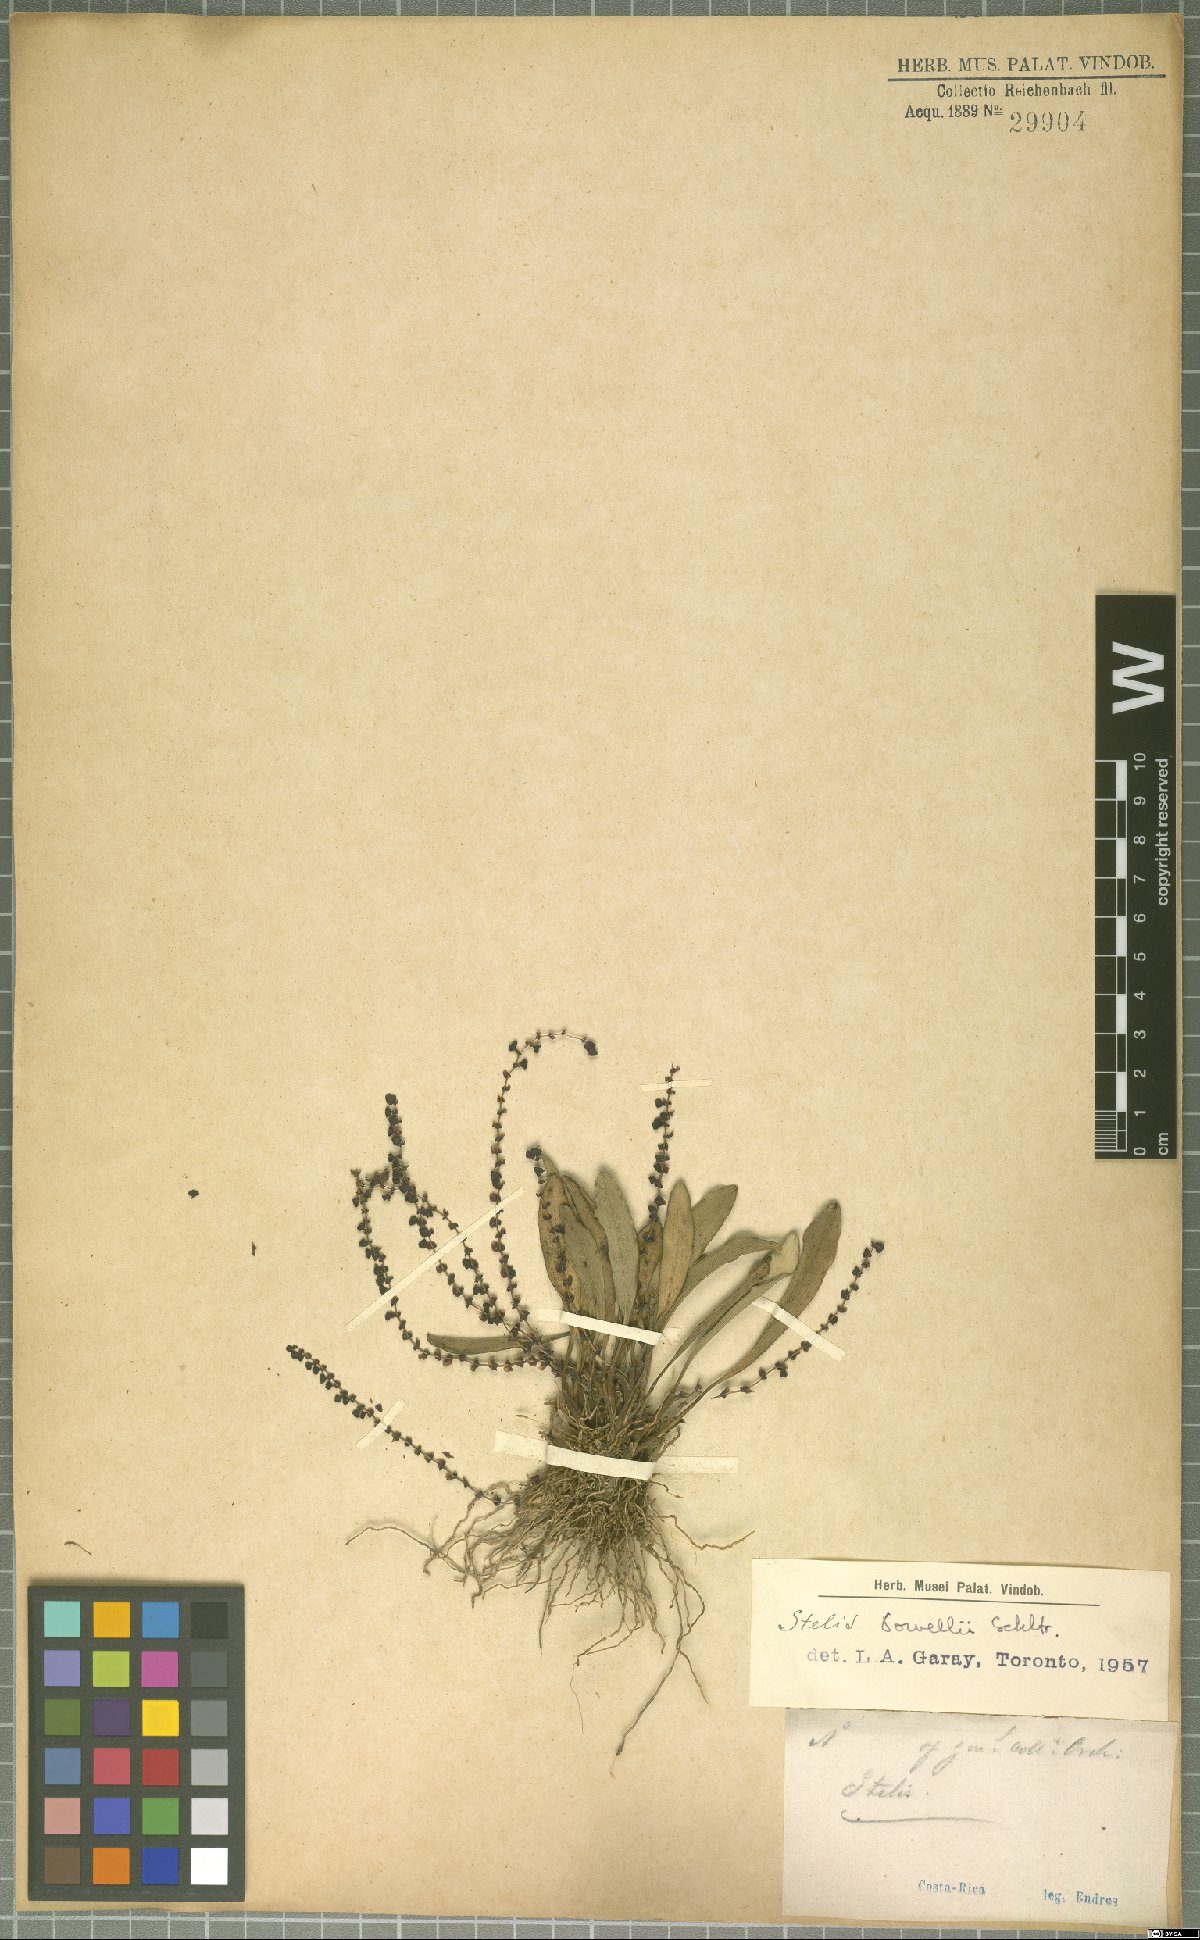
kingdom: Plantae
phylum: Tracheophyta
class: Liliopsida
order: Asparagales
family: Orchidaceae
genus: Stelis
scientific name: Stelis powellii
